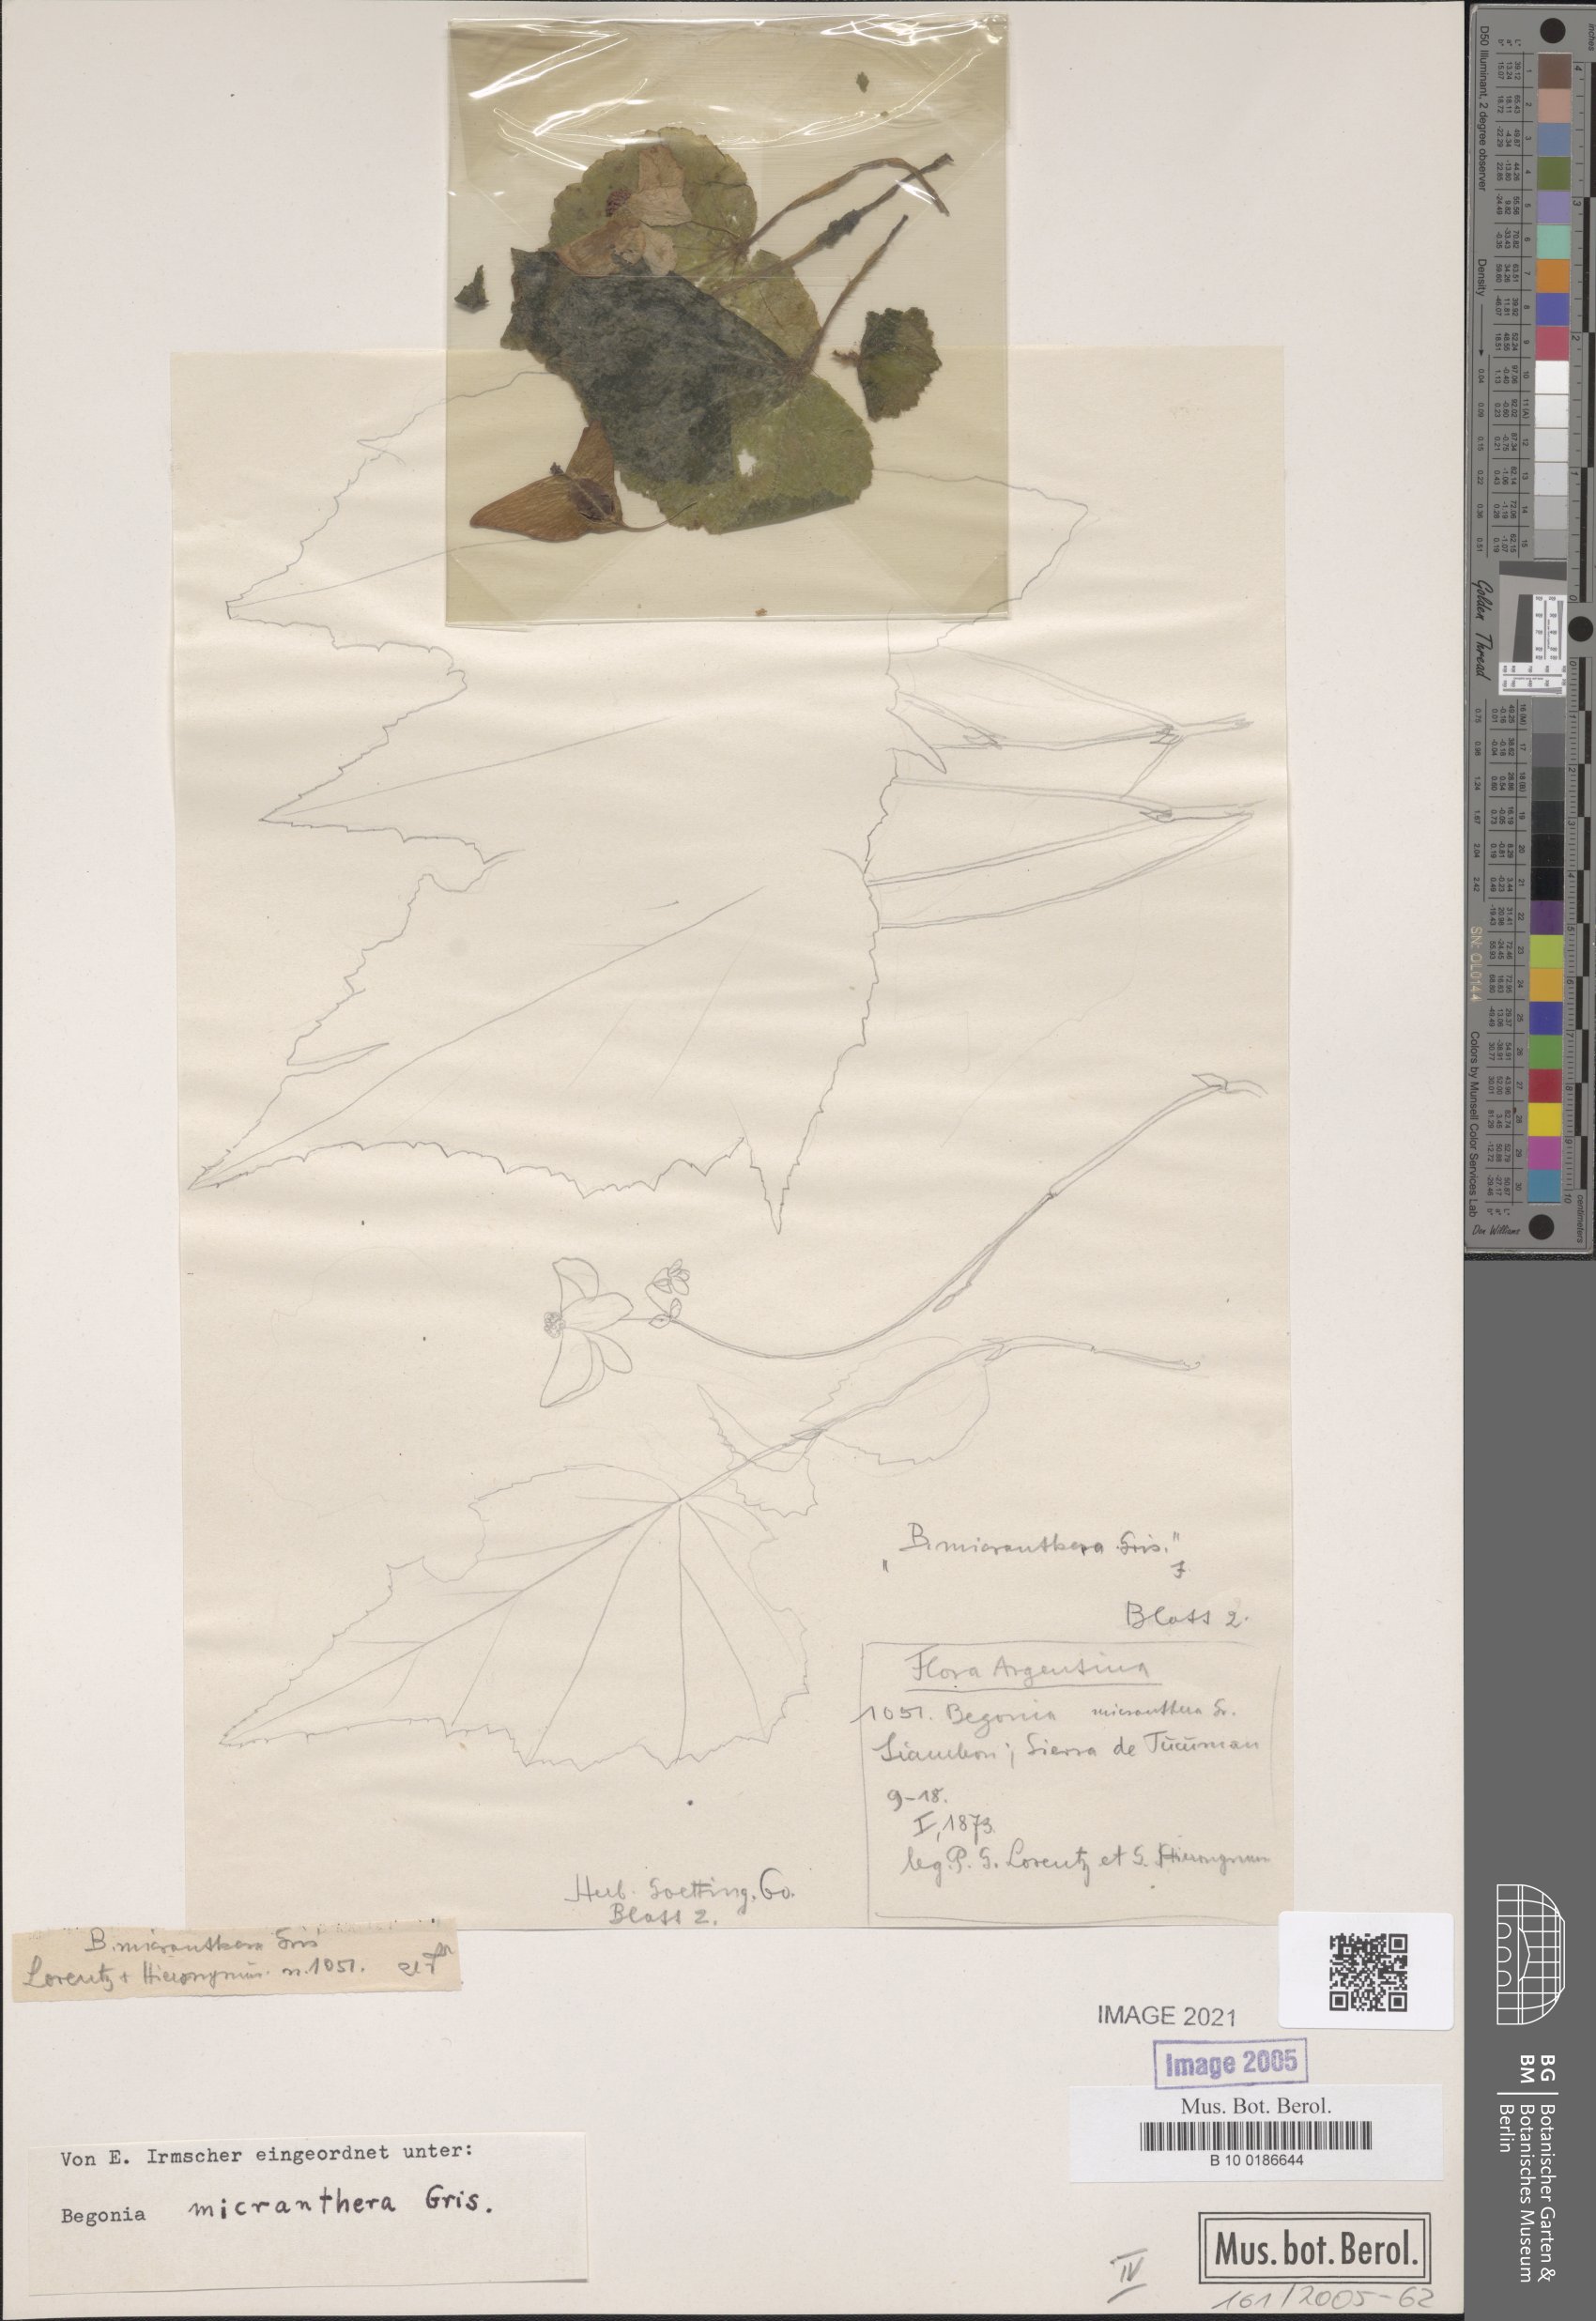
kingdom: Plantae
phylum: Tracheophyta
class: Magnoliopsida
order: Cucurbitales
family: Begoniaceae
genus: Begonia
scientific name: Begonia micranthera
